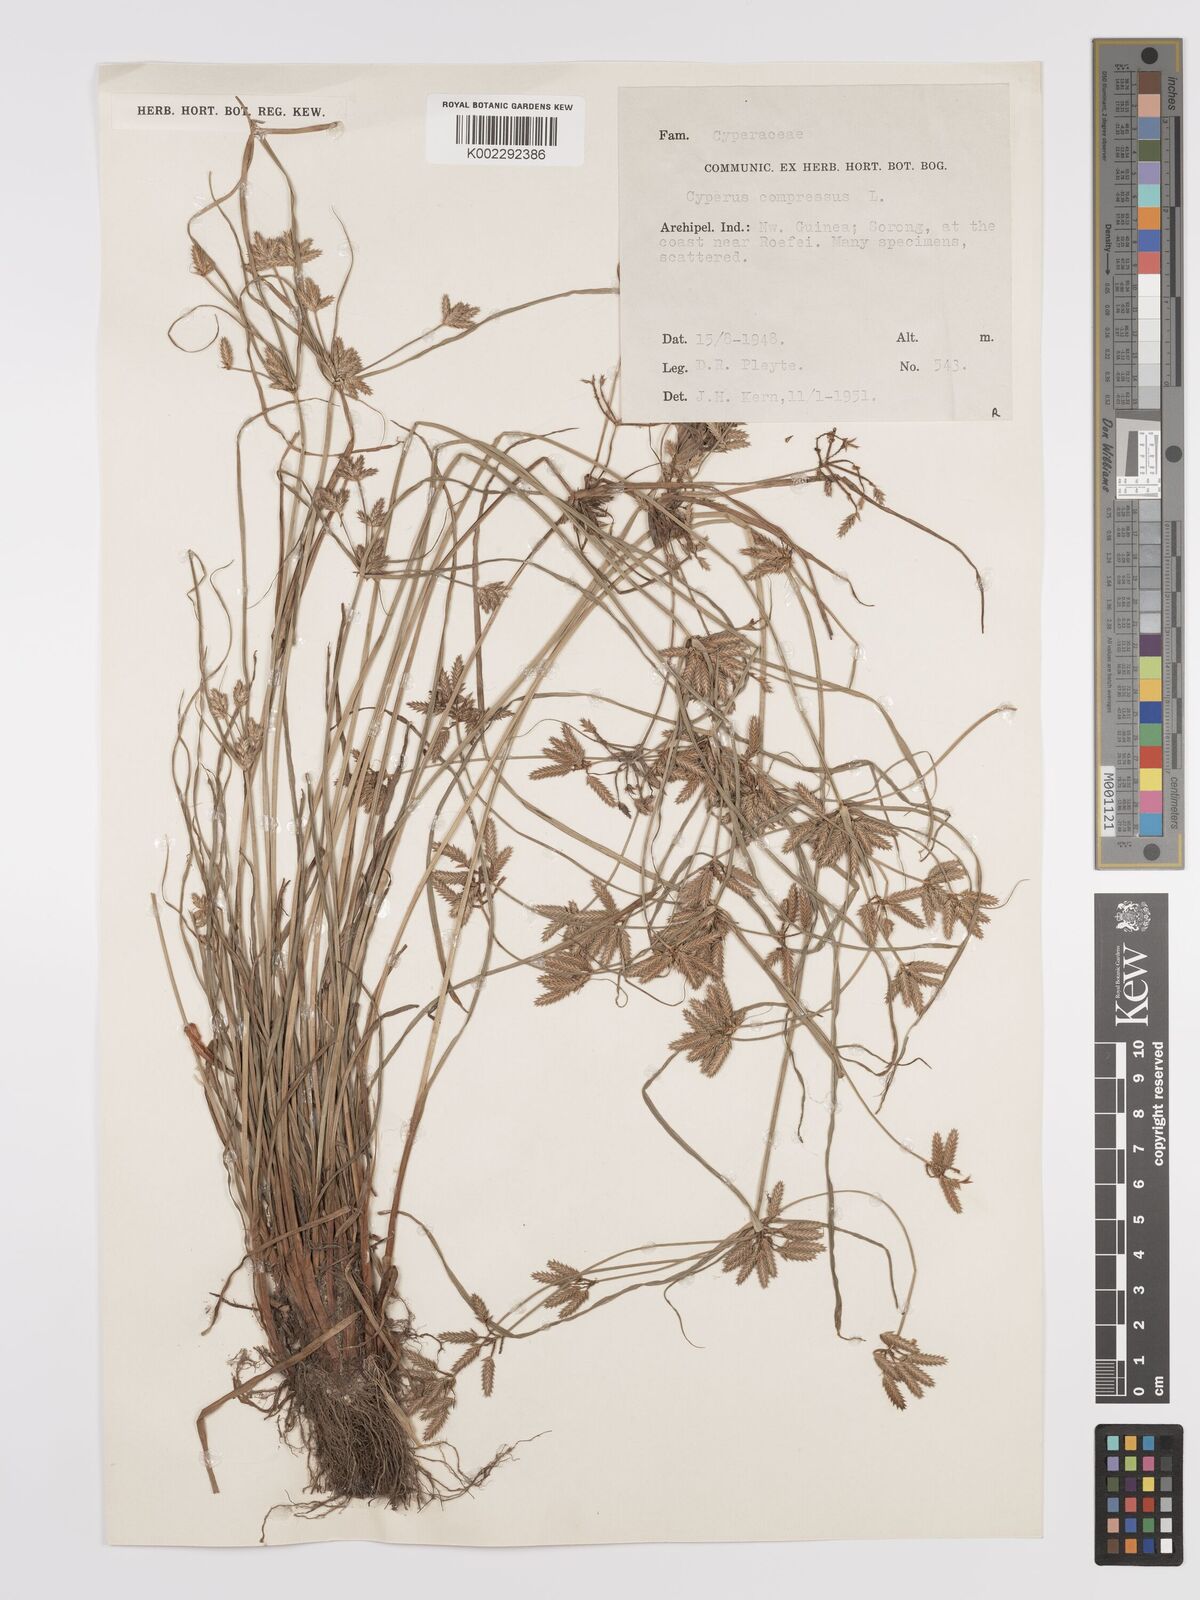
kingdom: Plantae
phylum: Tracheophyta
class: Liliopsida
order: Poales
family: Cyperaceae
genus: Cyperus
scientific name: Cyperus compressus
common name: Poorland flatsedge
